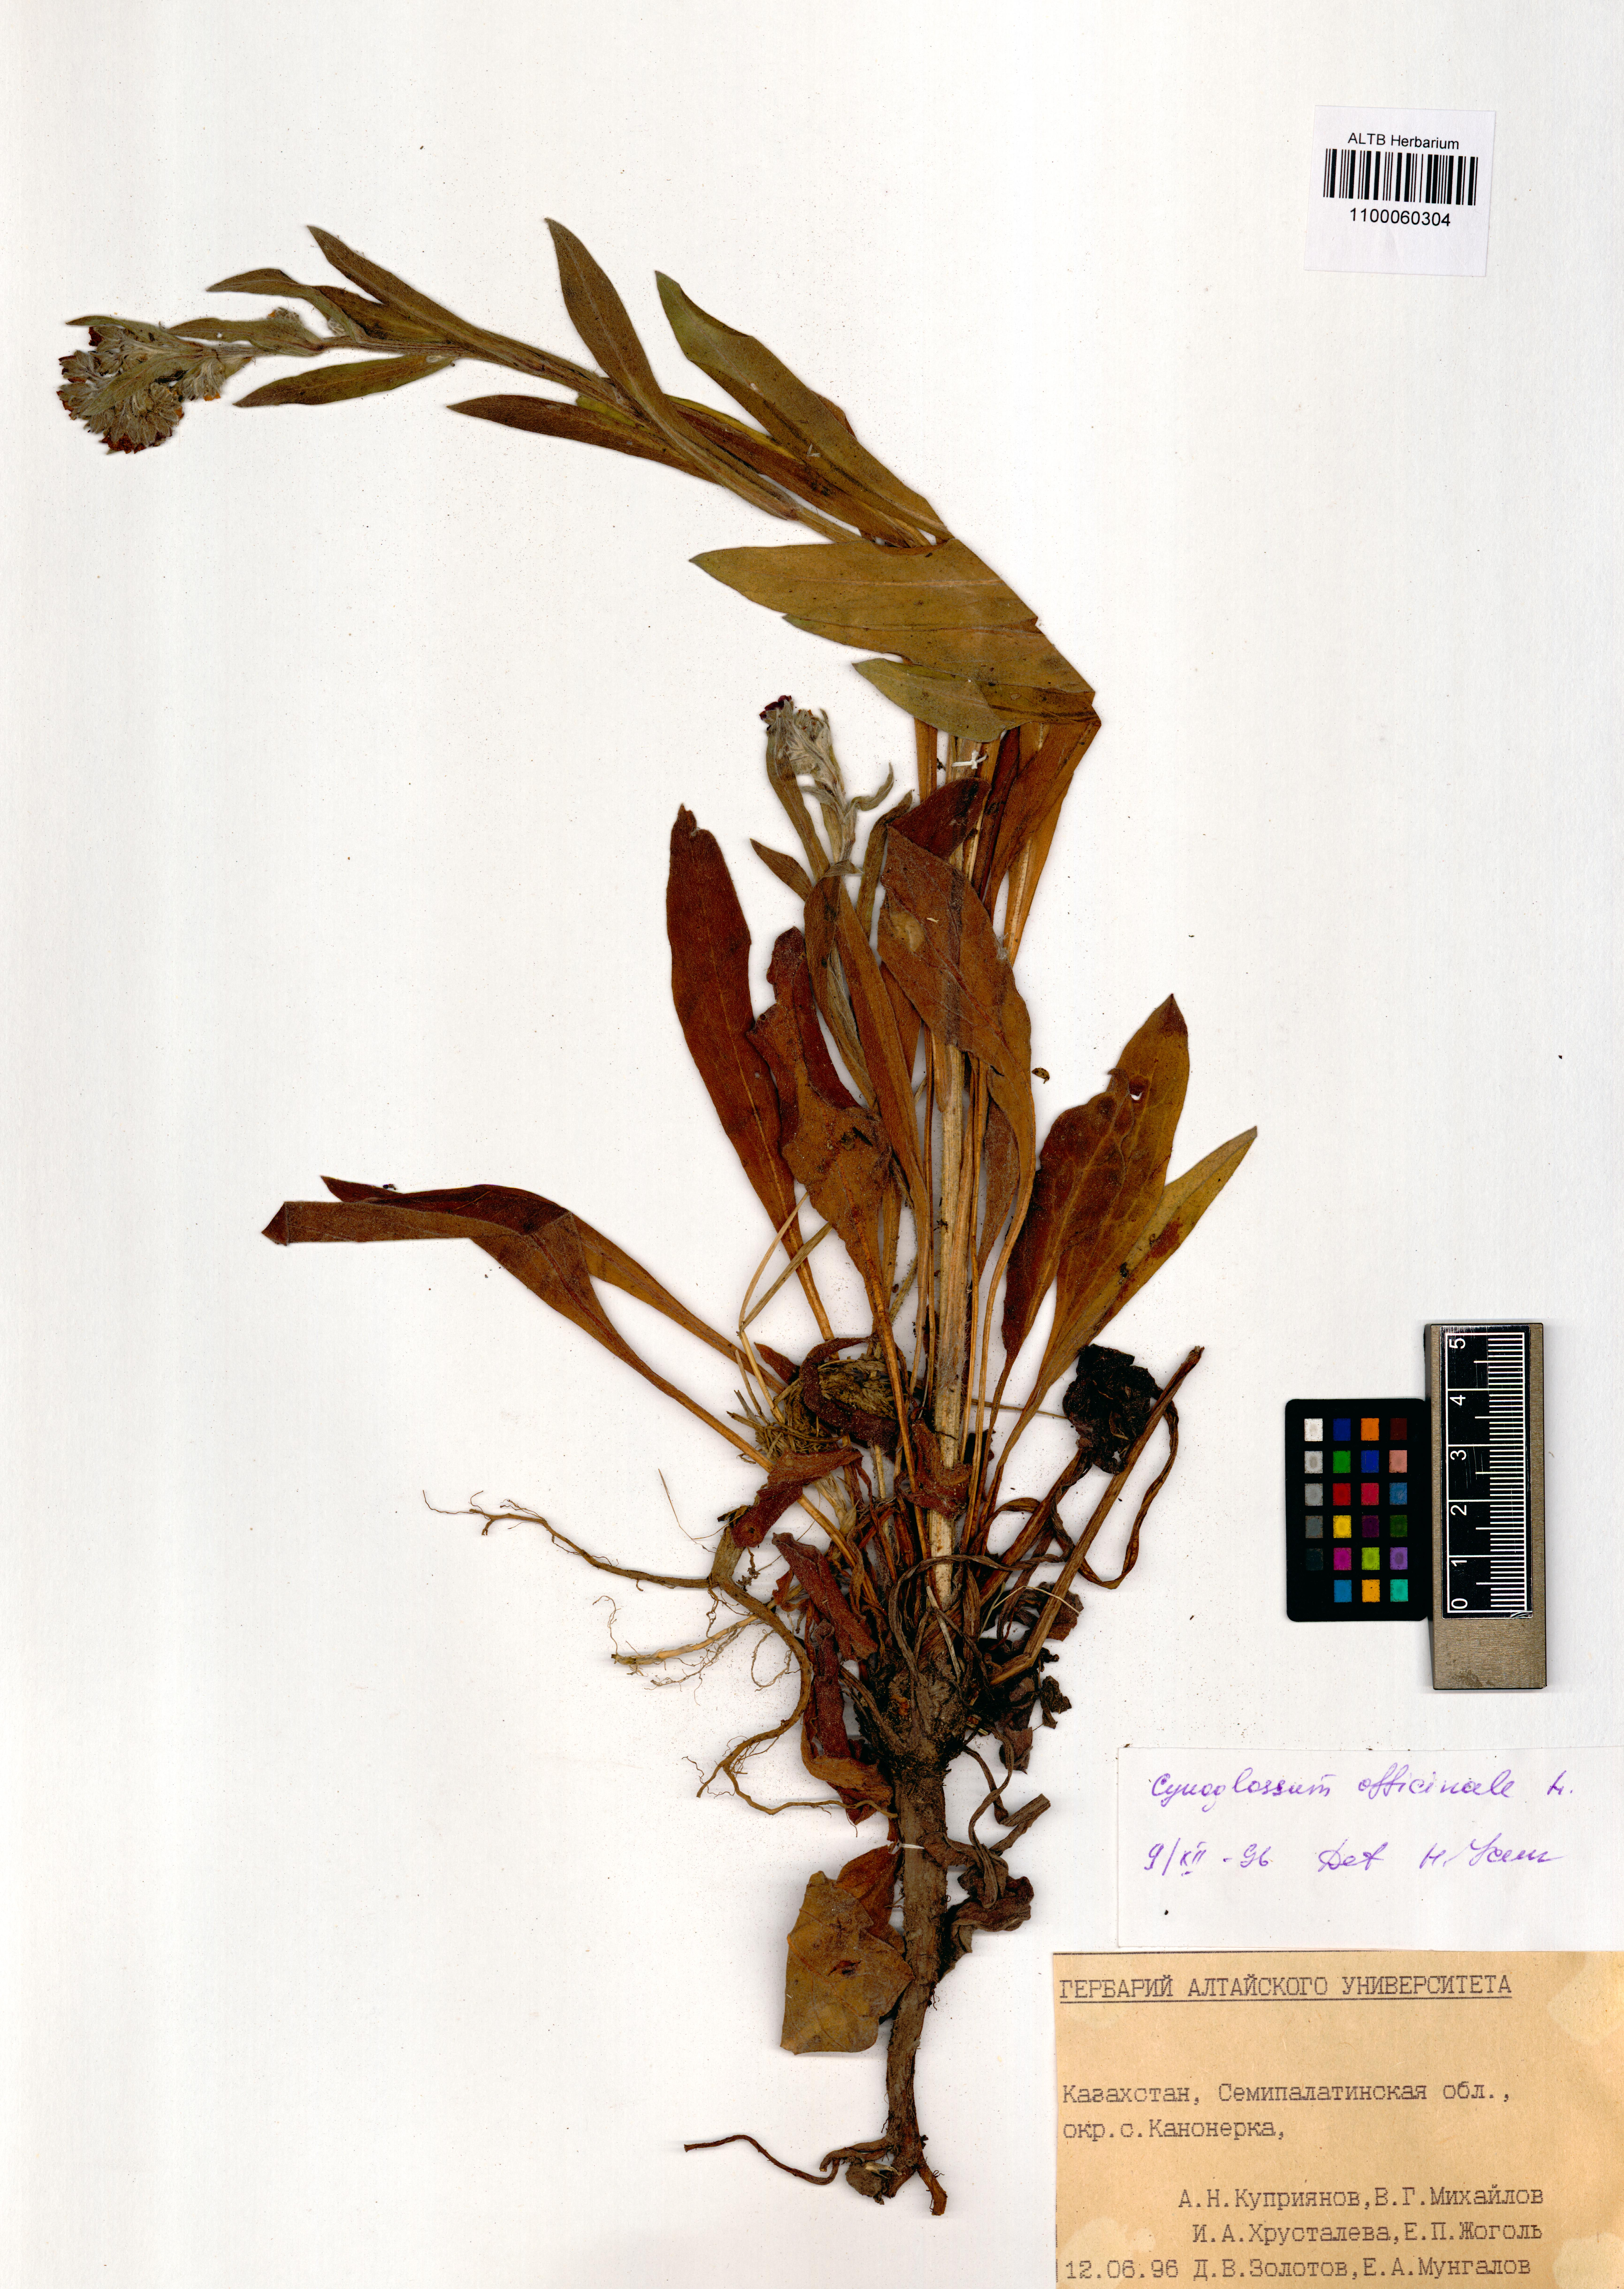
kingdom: Plantae
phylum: Tracheophyta
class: Magnoliopsida
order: Boraginales
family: Boraginaceae
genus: Cynoglossum
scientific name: Cynoglossum officinale
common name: Hound's-tongue
